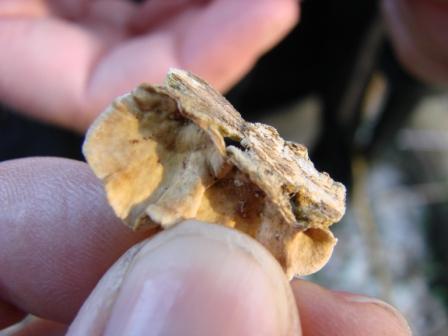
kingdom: Fungi
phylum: Basidiomycota
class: Agaricomycetes
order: Russulales
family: Stereaceae
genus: Stereum
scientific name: Stereum subtomentosum
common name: smuk lædersvamp
